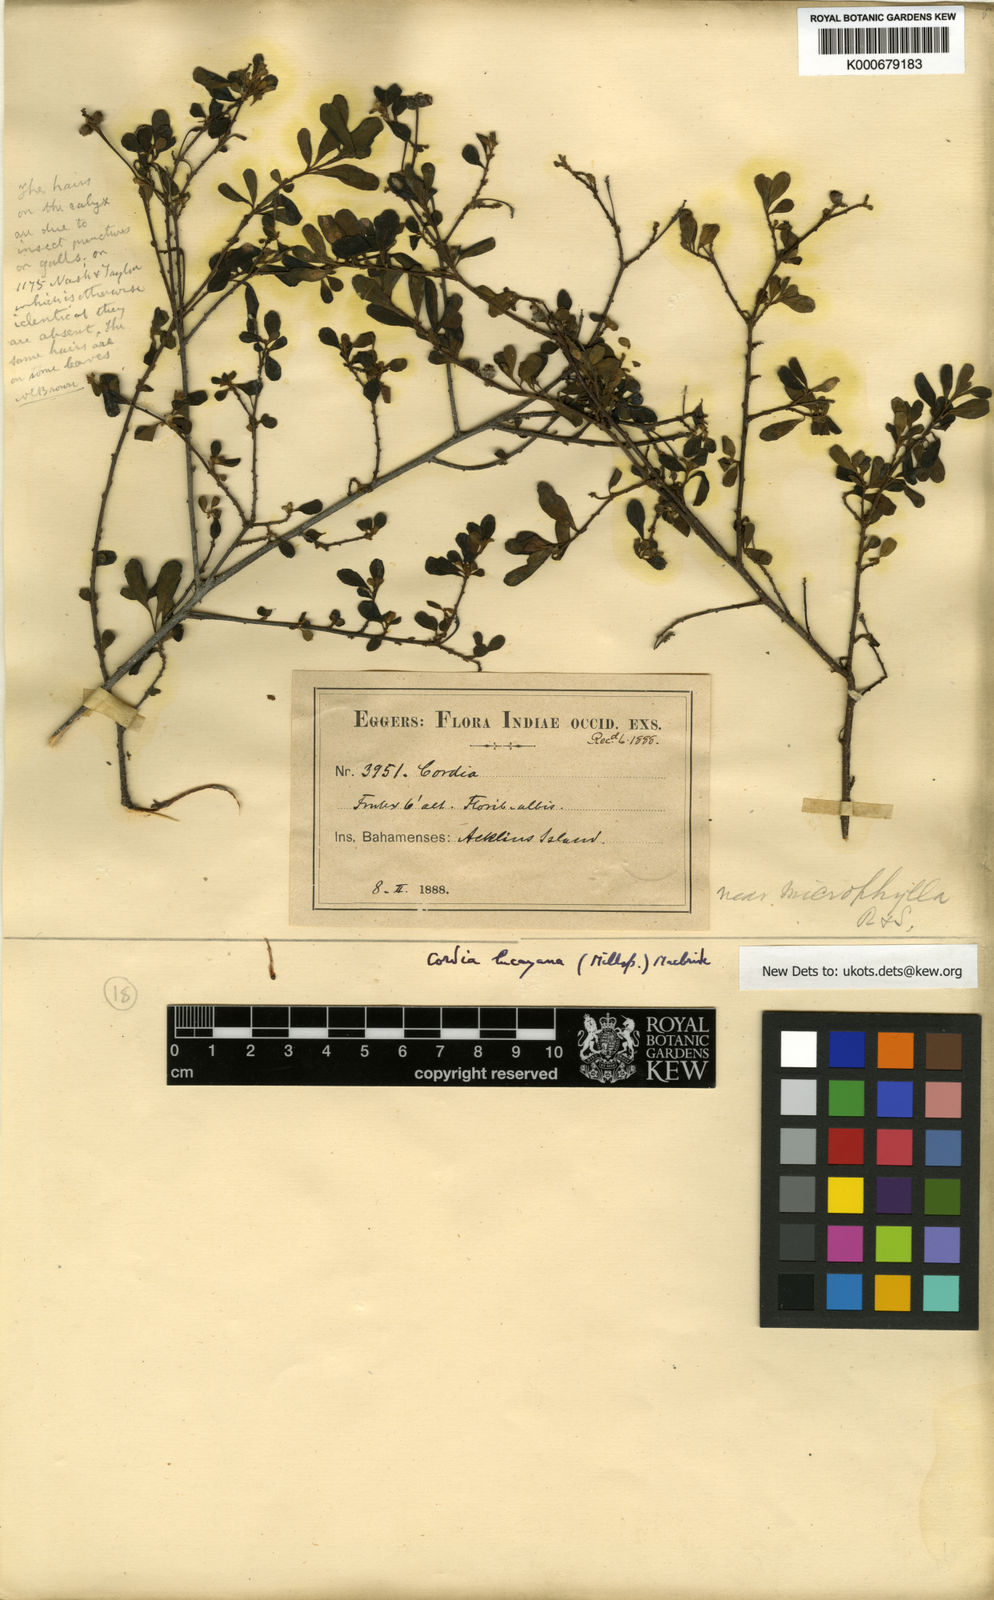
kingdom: Plantae
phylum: Tracheophyta
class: Magnoliopsida
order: Boraginales
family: Cordiaceae
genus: Varronia
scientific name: Varronia lucayana
